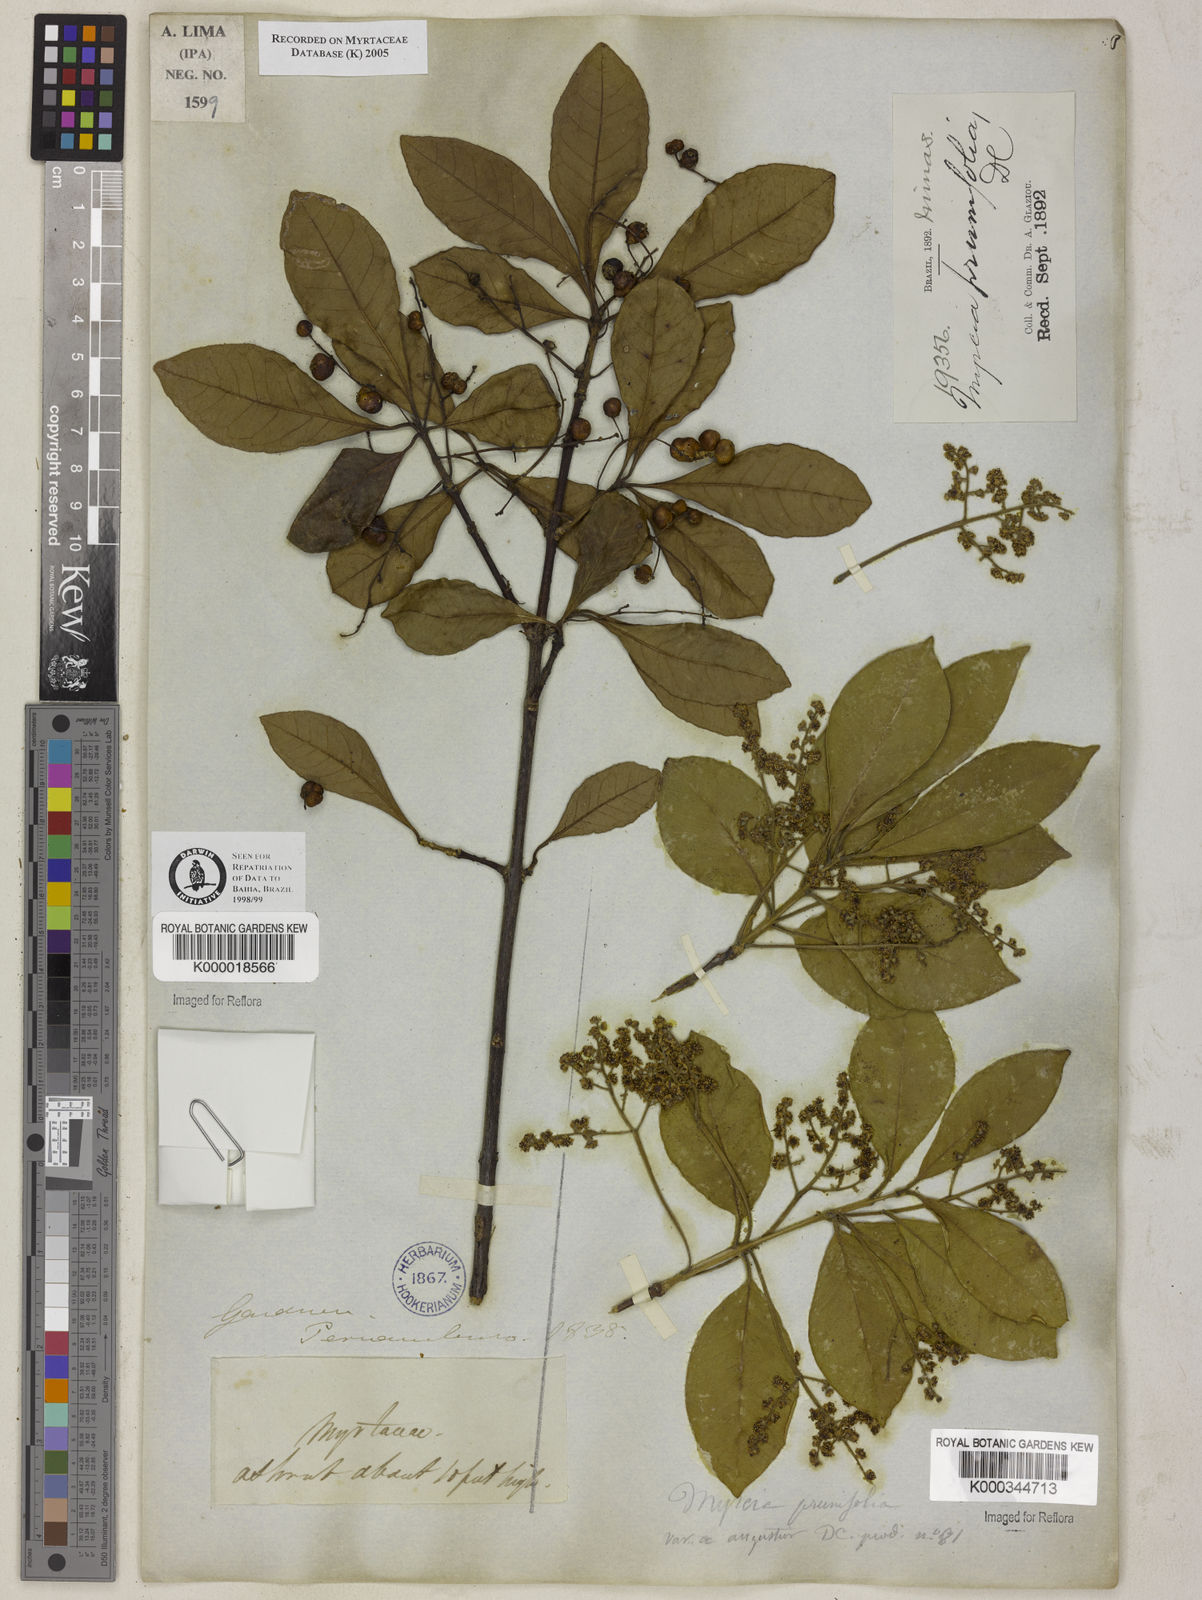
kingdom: Plantae
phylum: Tracheophyta
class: Magnoliopsida
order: Myrtales
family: Myrtaceae
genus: Myrcia
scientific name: Myrcia
